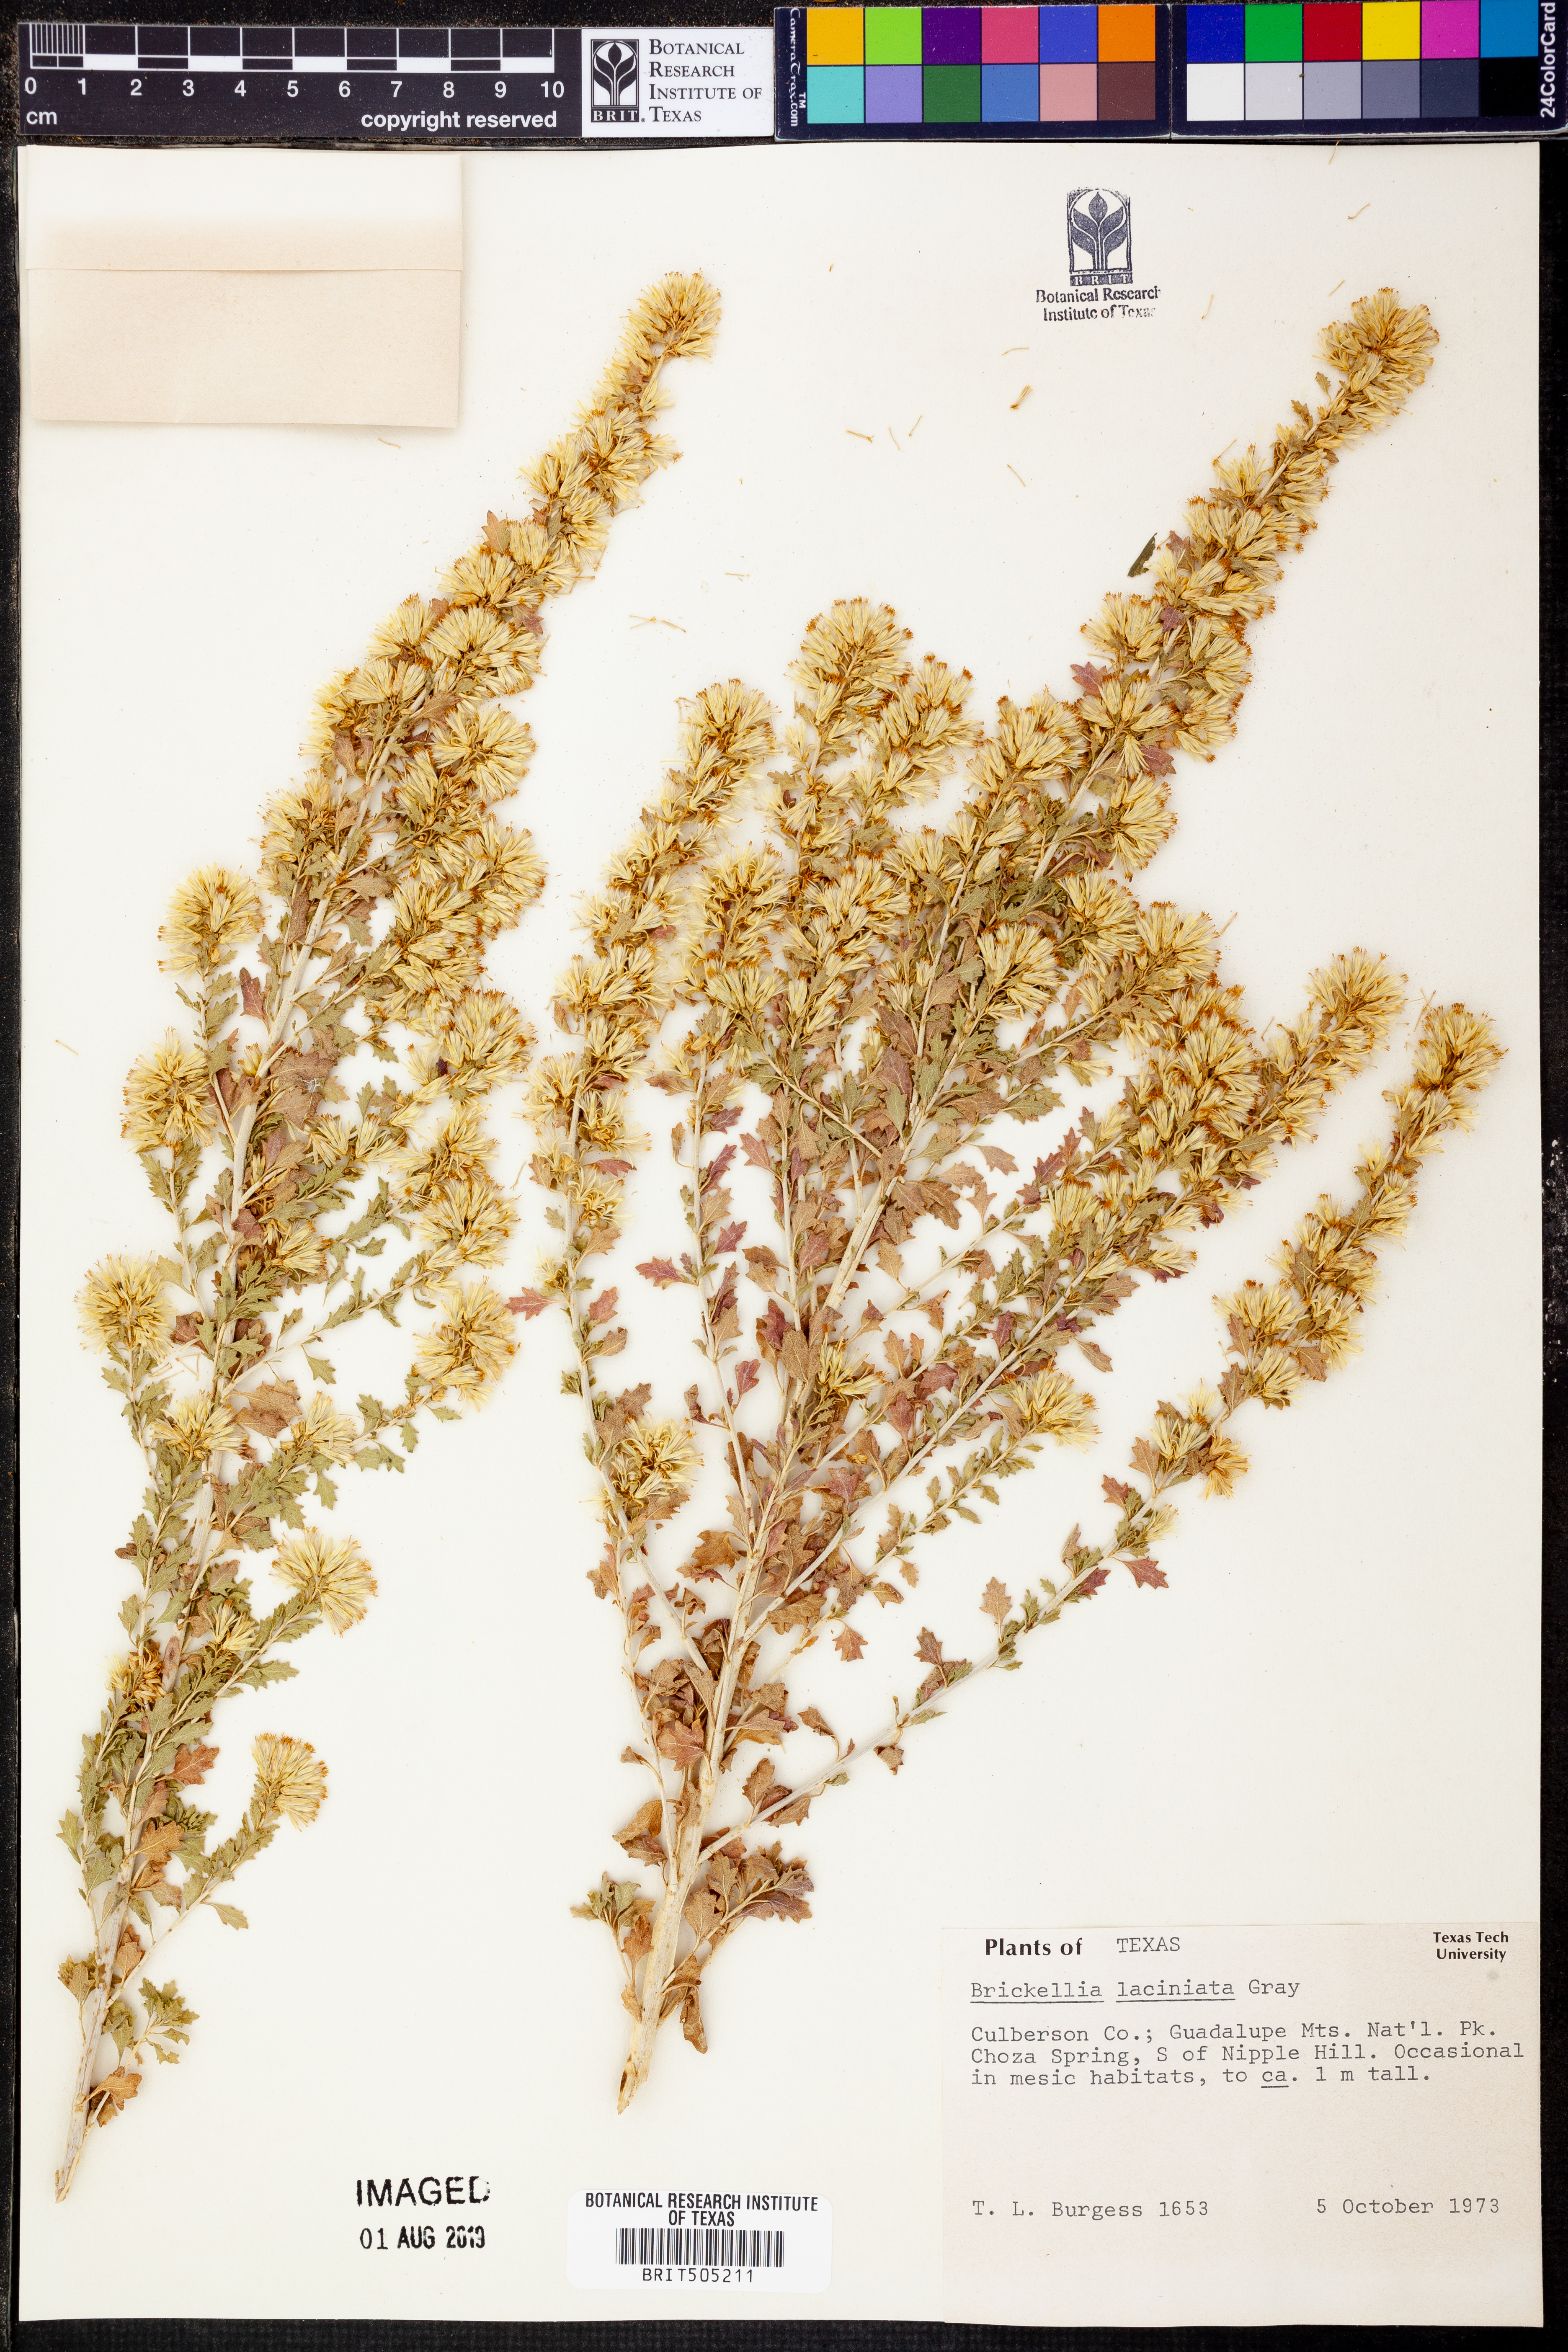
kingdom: Plantae
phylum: Tracheophyta
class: Magnoliopsida
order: Asterales
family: Asteraceae
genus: Brickellia
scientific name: Brickellia laciniata
